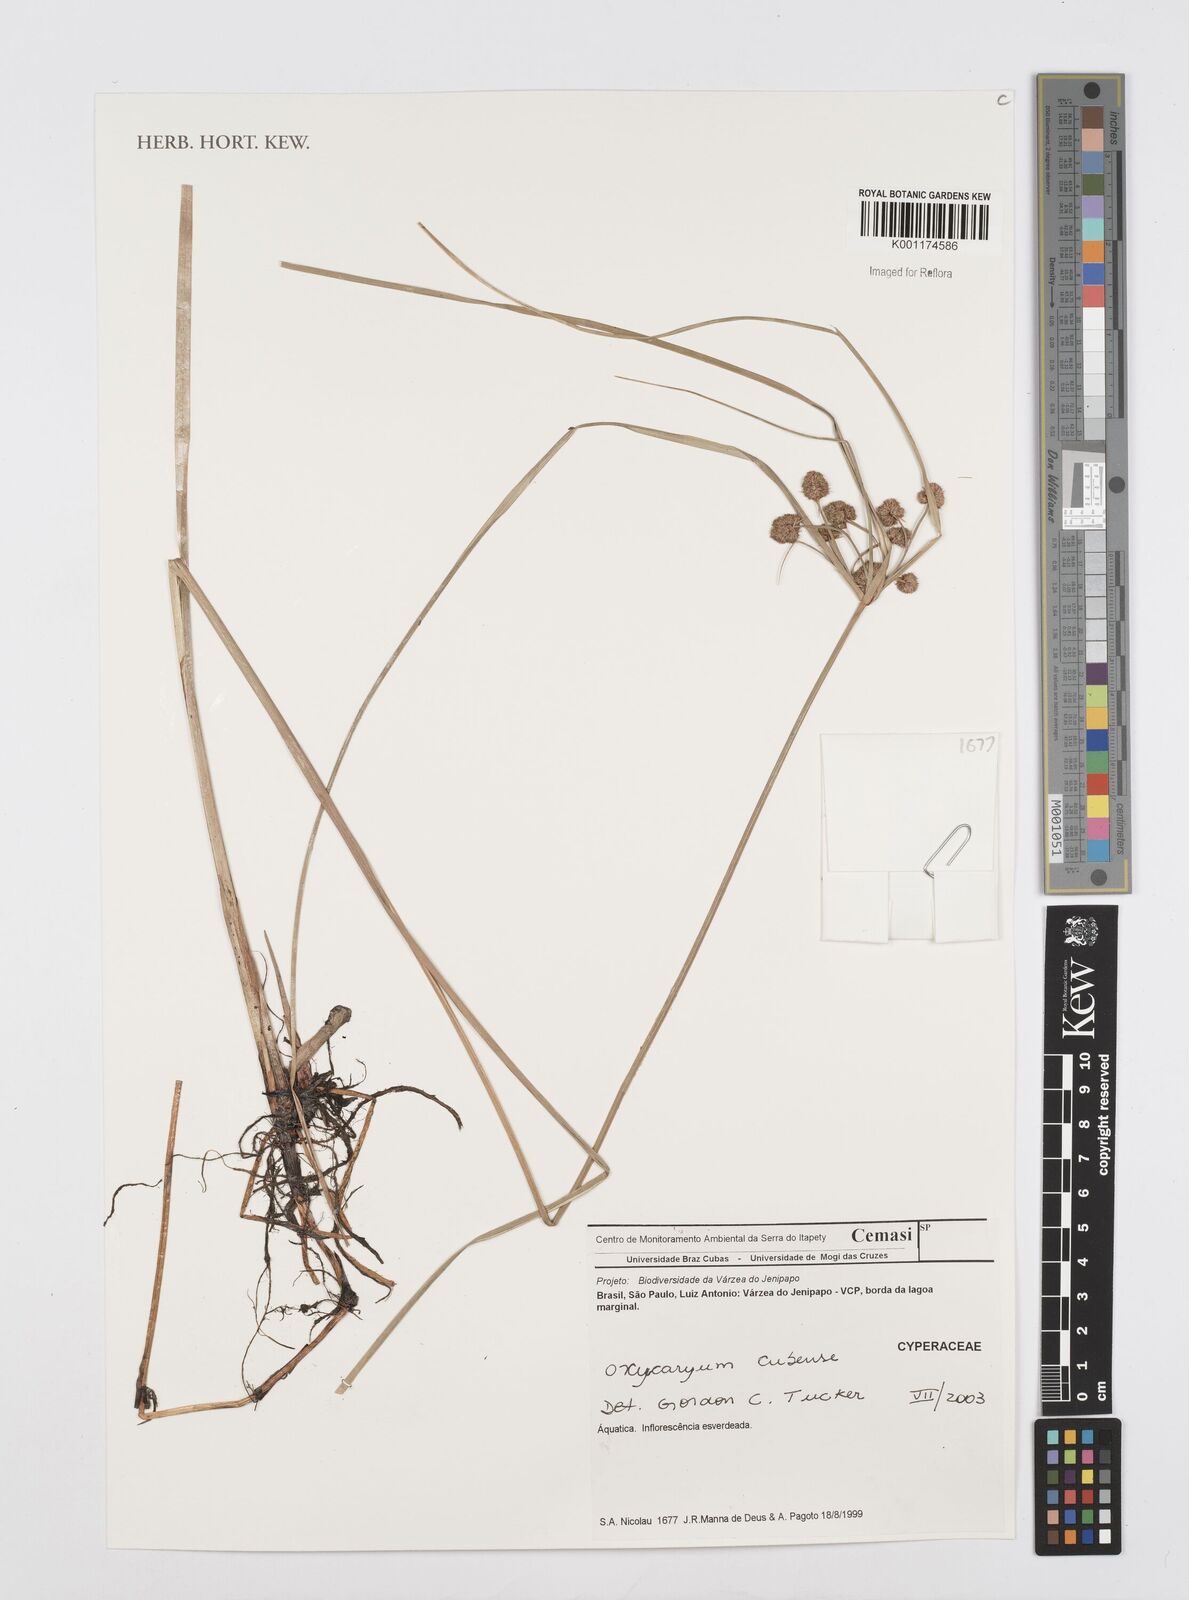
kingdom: Plantae
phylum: Tracheophyta
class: Liliopsida
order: Poales
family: Cyperaceae
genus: Cyperus
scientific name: Cyperus elegans
